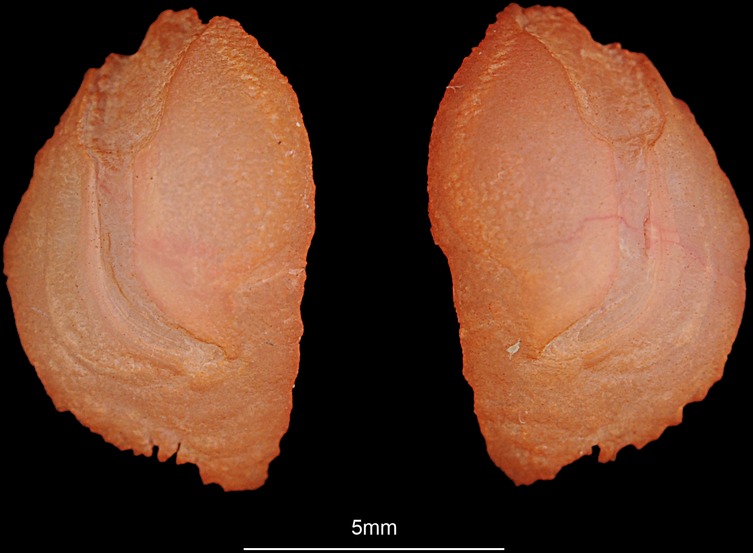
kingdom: Animalia
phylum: Chordata
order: Perciformes
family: Lethrinidae
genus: Lethrinus
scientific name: Lethrinus nebulosus
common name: Spangled emperor
